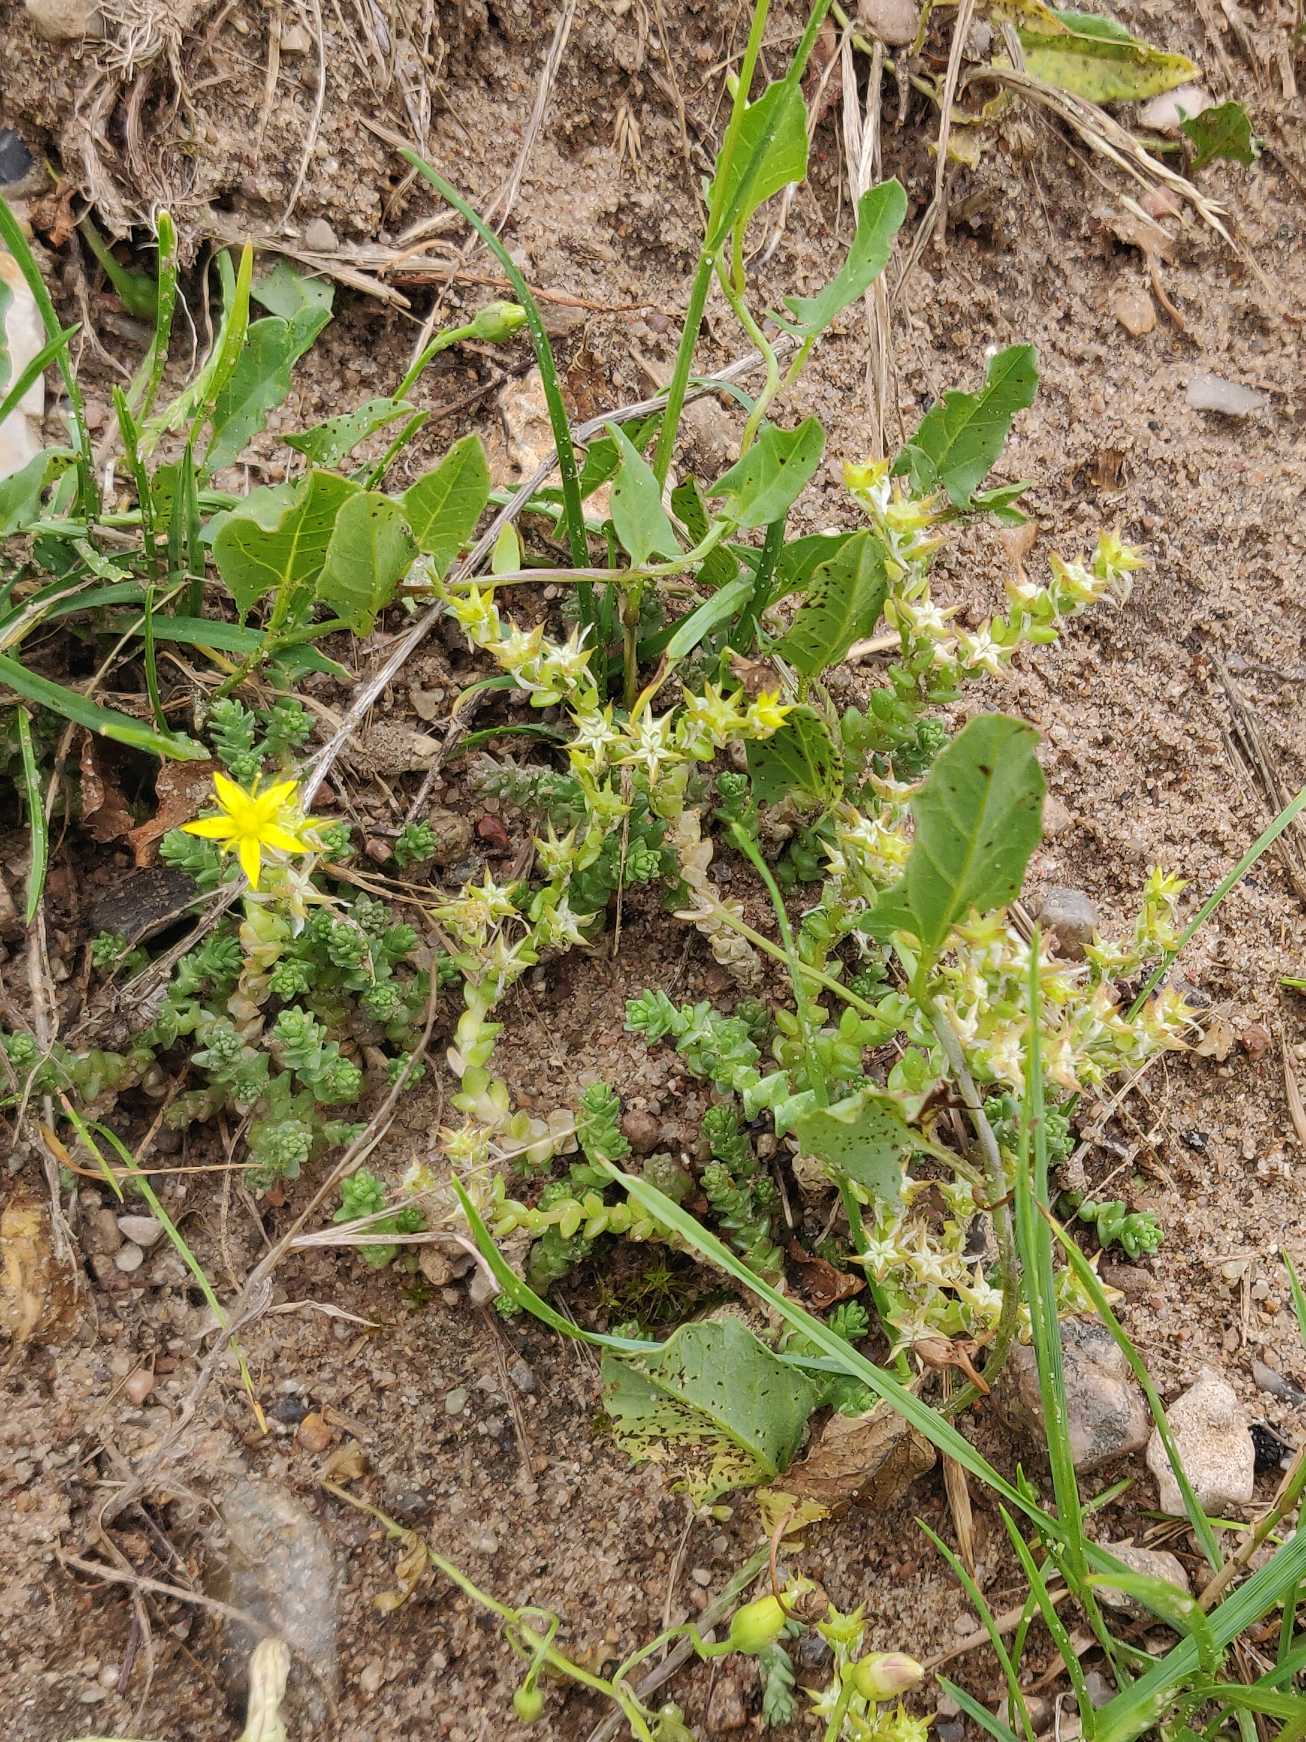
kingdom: Plantae
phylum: Tracheophyta
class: Magnoliopsida
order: Saxifragales
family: Crassulaceae
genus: Sedum
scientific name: Sedum acre
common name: Bidende stenurt
